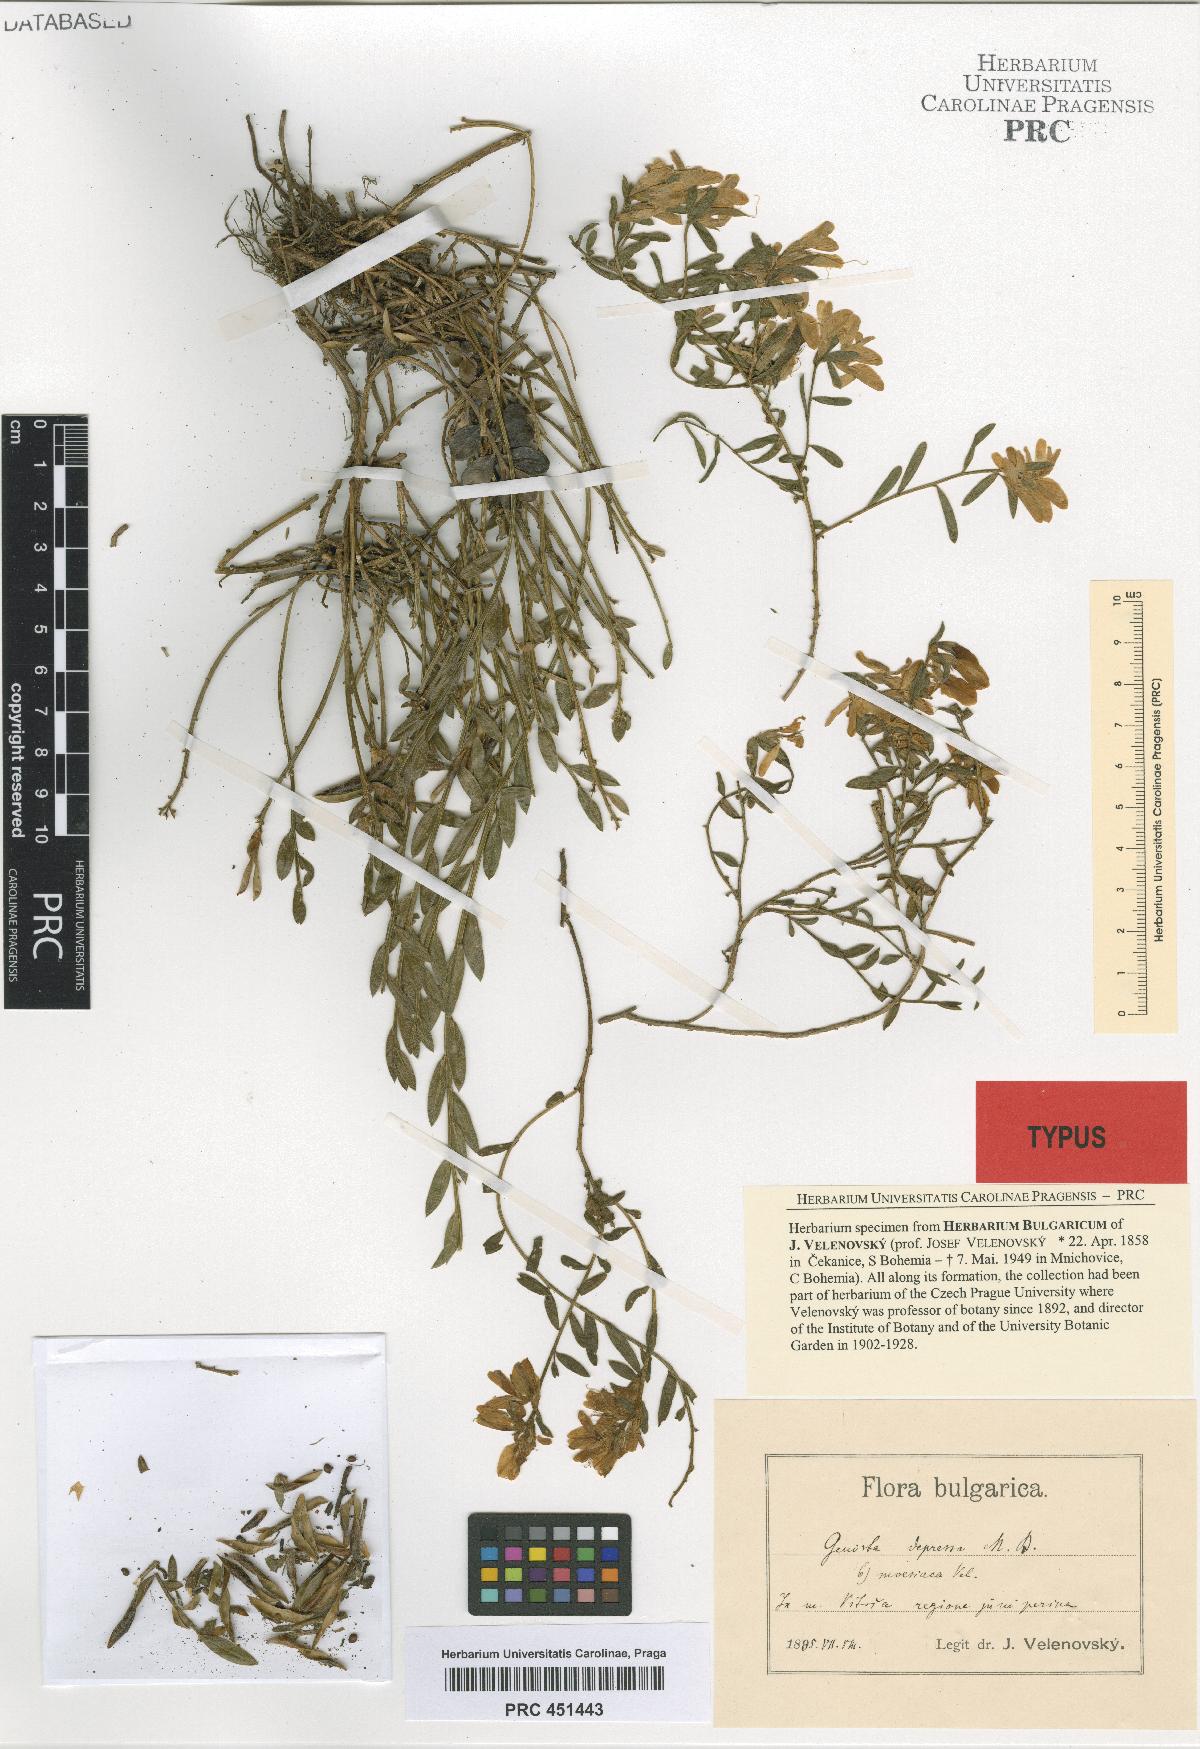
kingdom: Plantae
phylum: Tracheophyta
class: Magnoliopsida
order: Fabales
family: Fabaceae
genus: Genista
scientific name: Genista depressa
